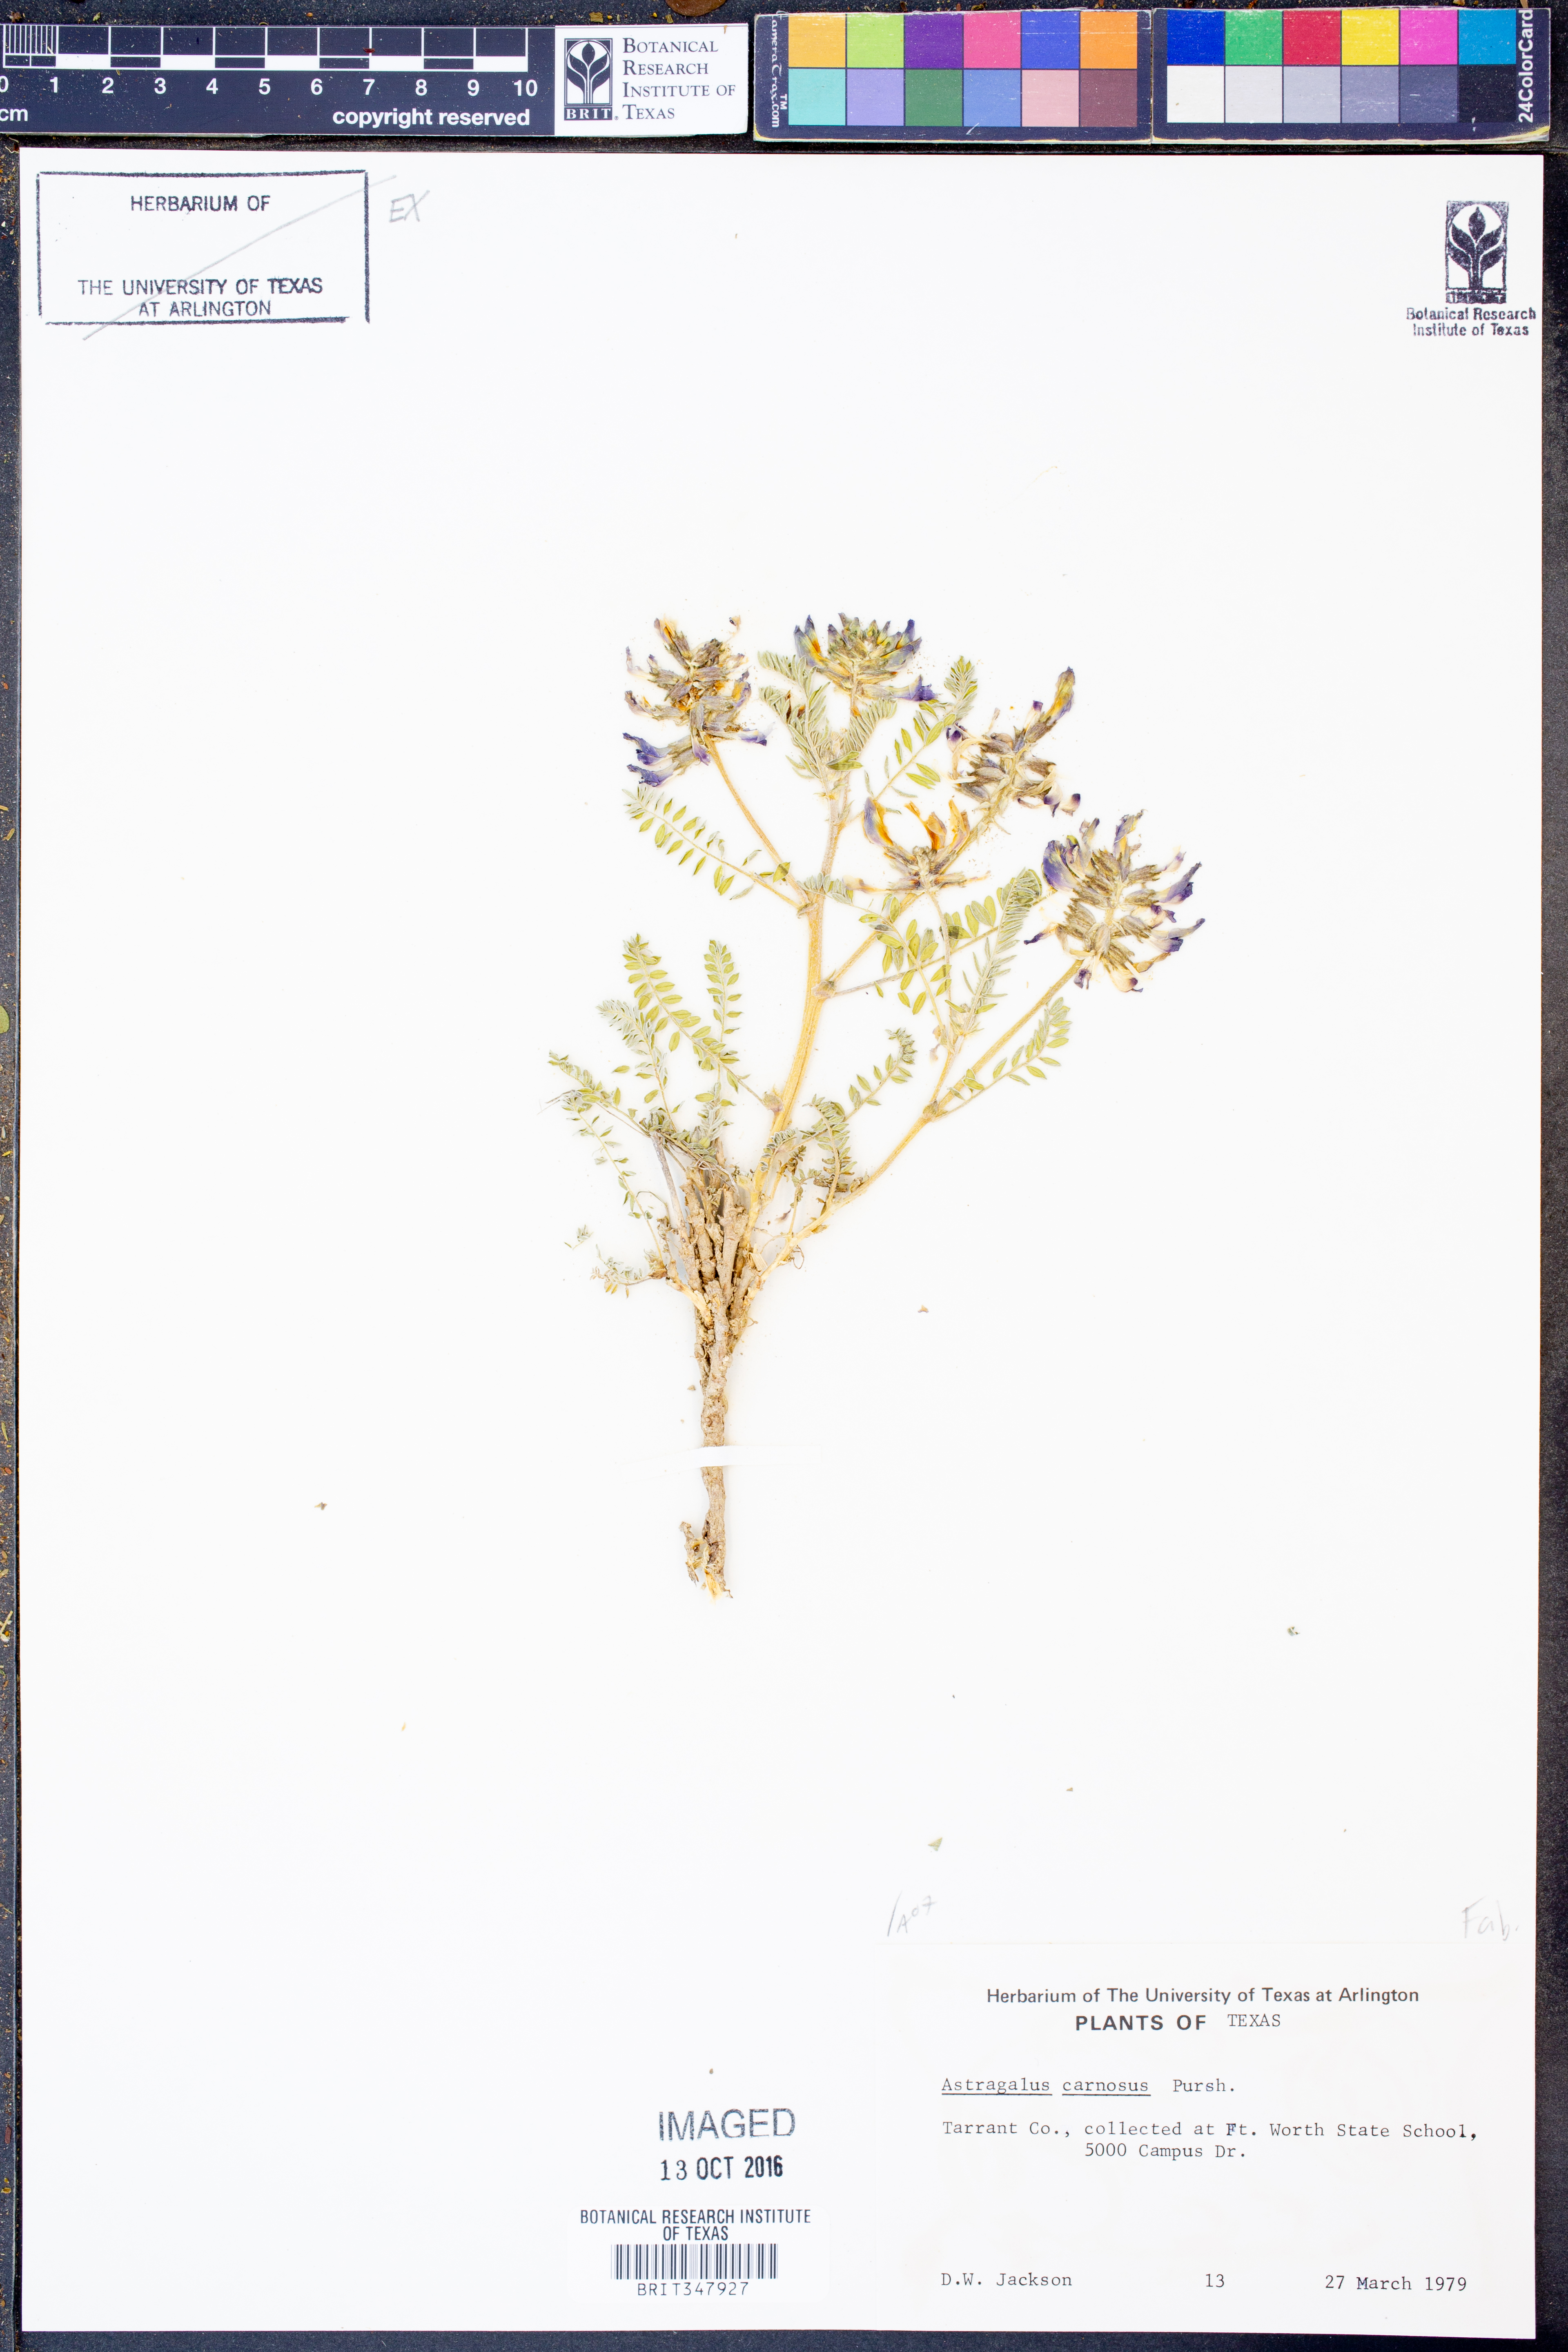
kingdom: Plantae
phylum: Tracheophyta
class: Magnoliopsida
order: Fabales
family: Fabaceae
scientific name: Fabaceae
